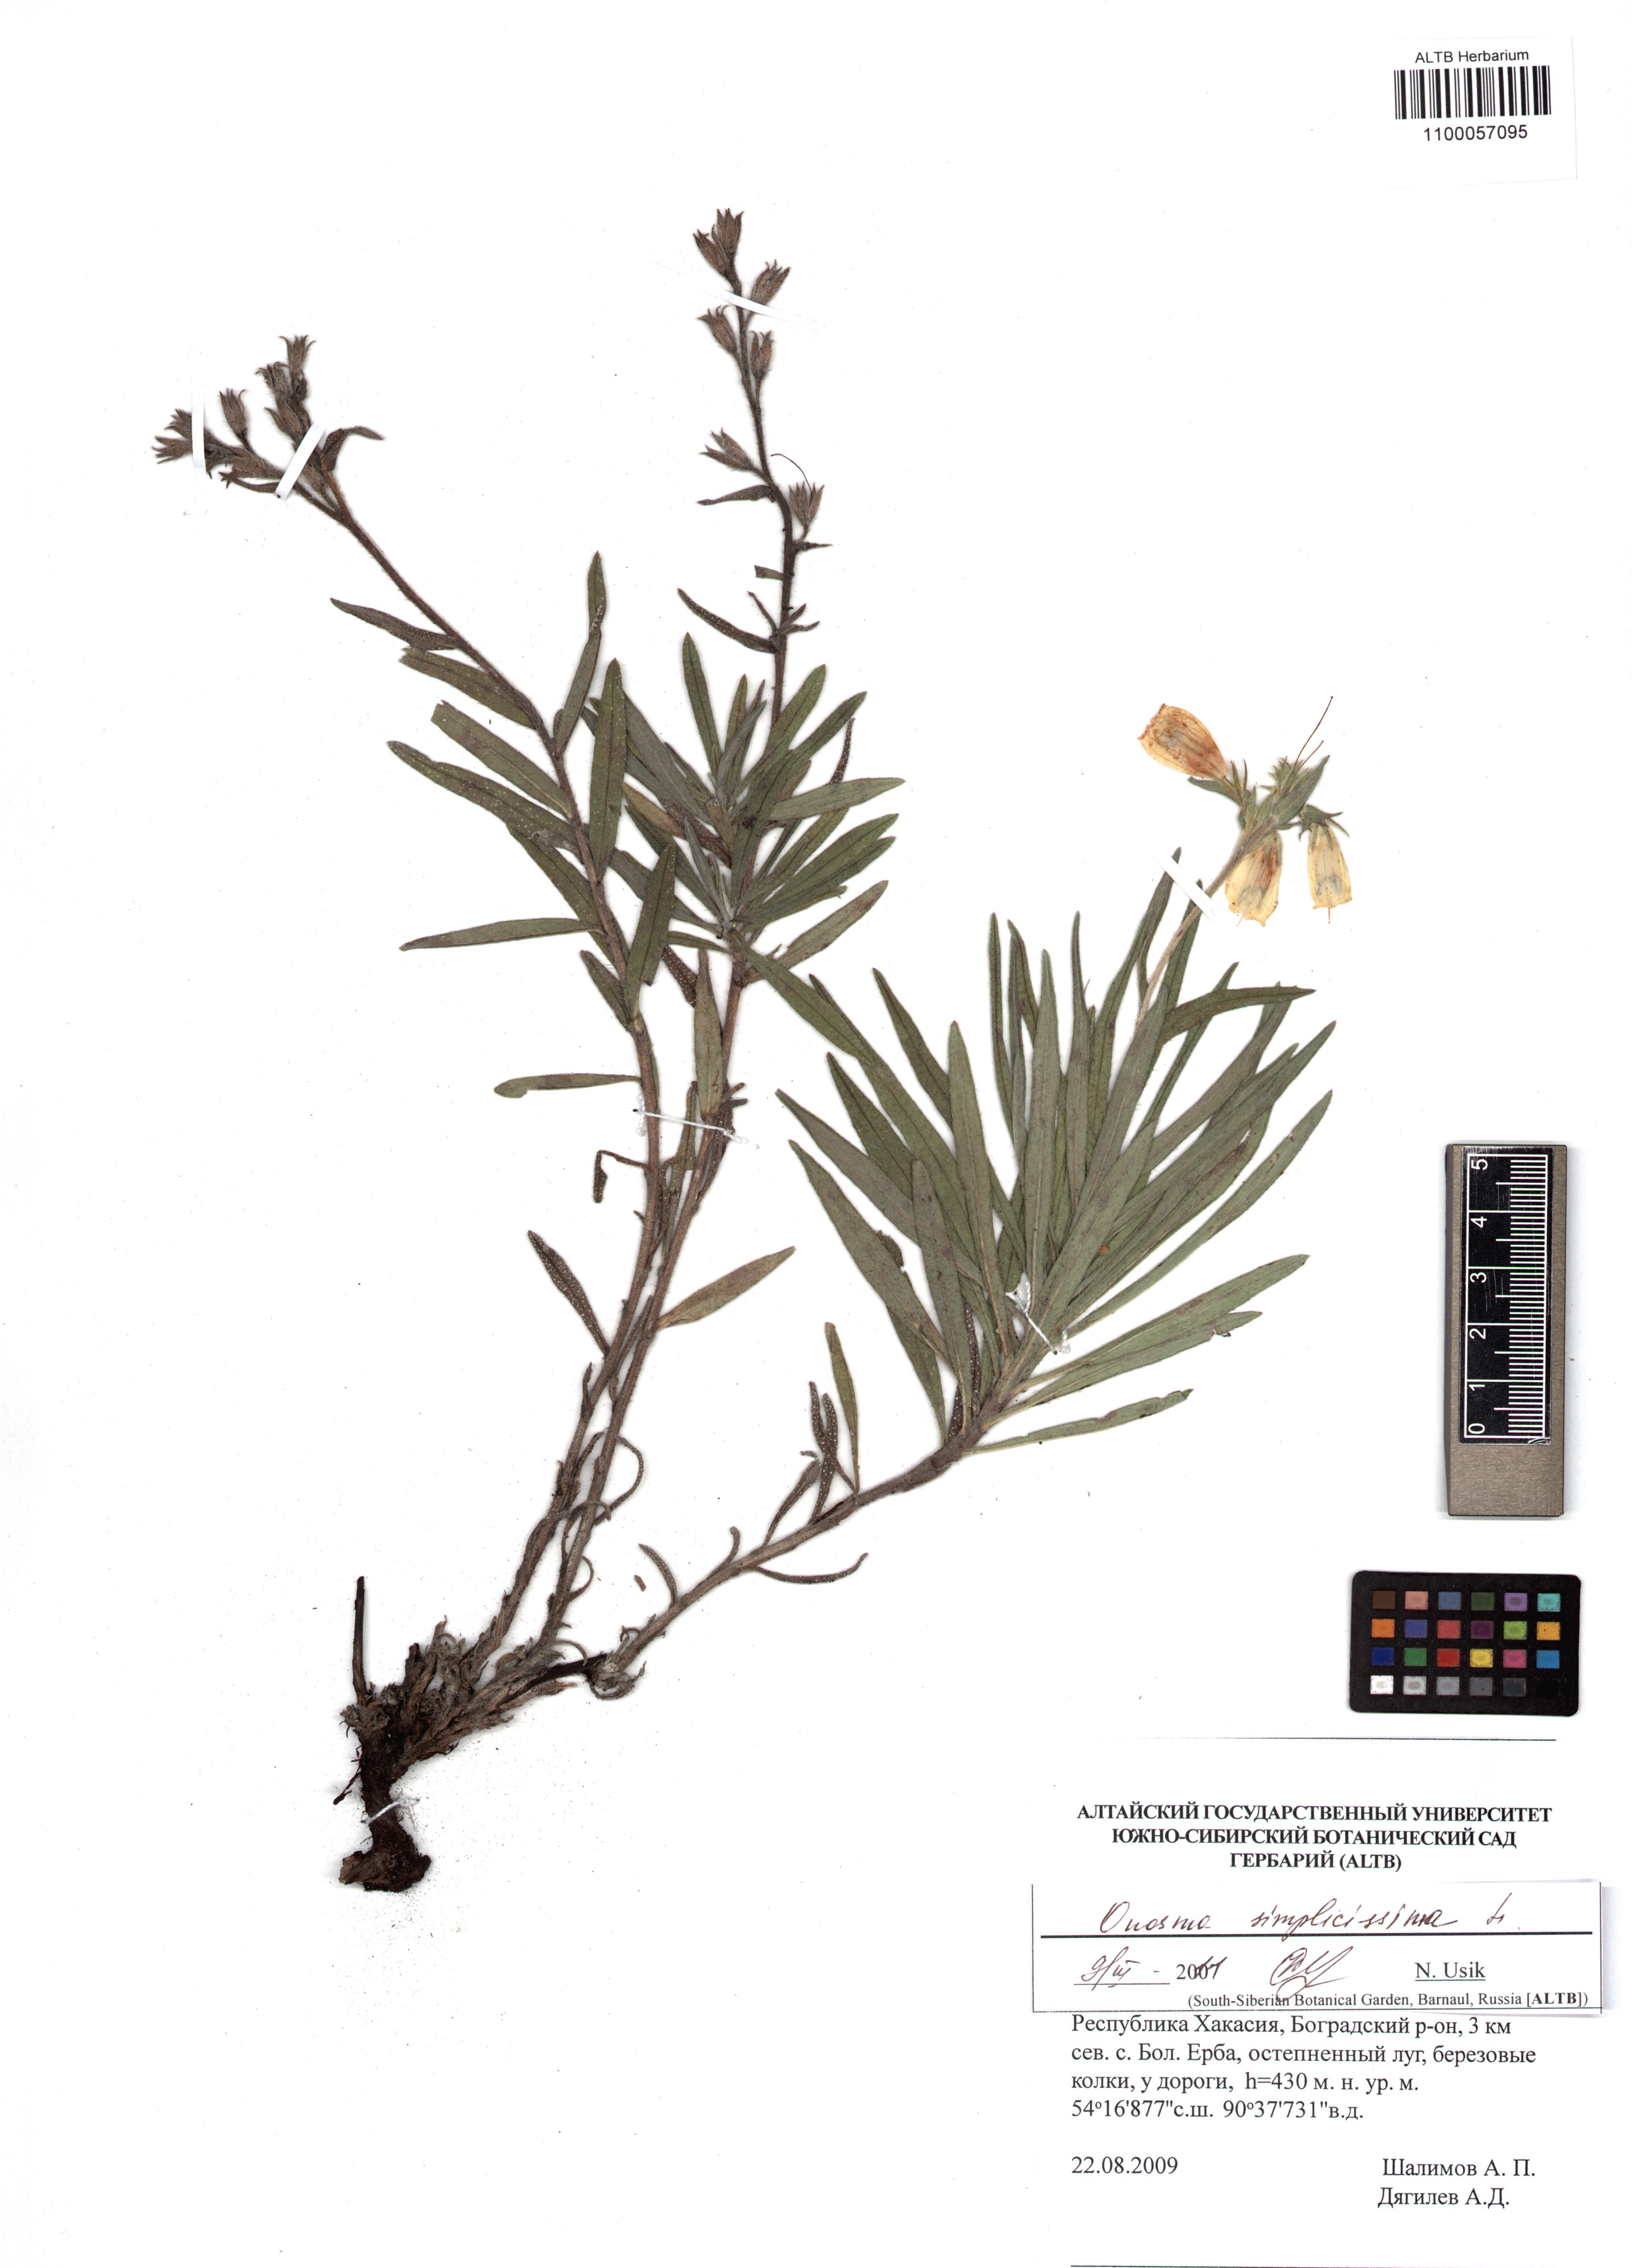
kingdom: Plantae
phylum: Tracheophyta
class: Magnoliopsida
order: Boraginales
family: Boraginaceae
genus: Onosma
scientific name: Onosma simplicissima
